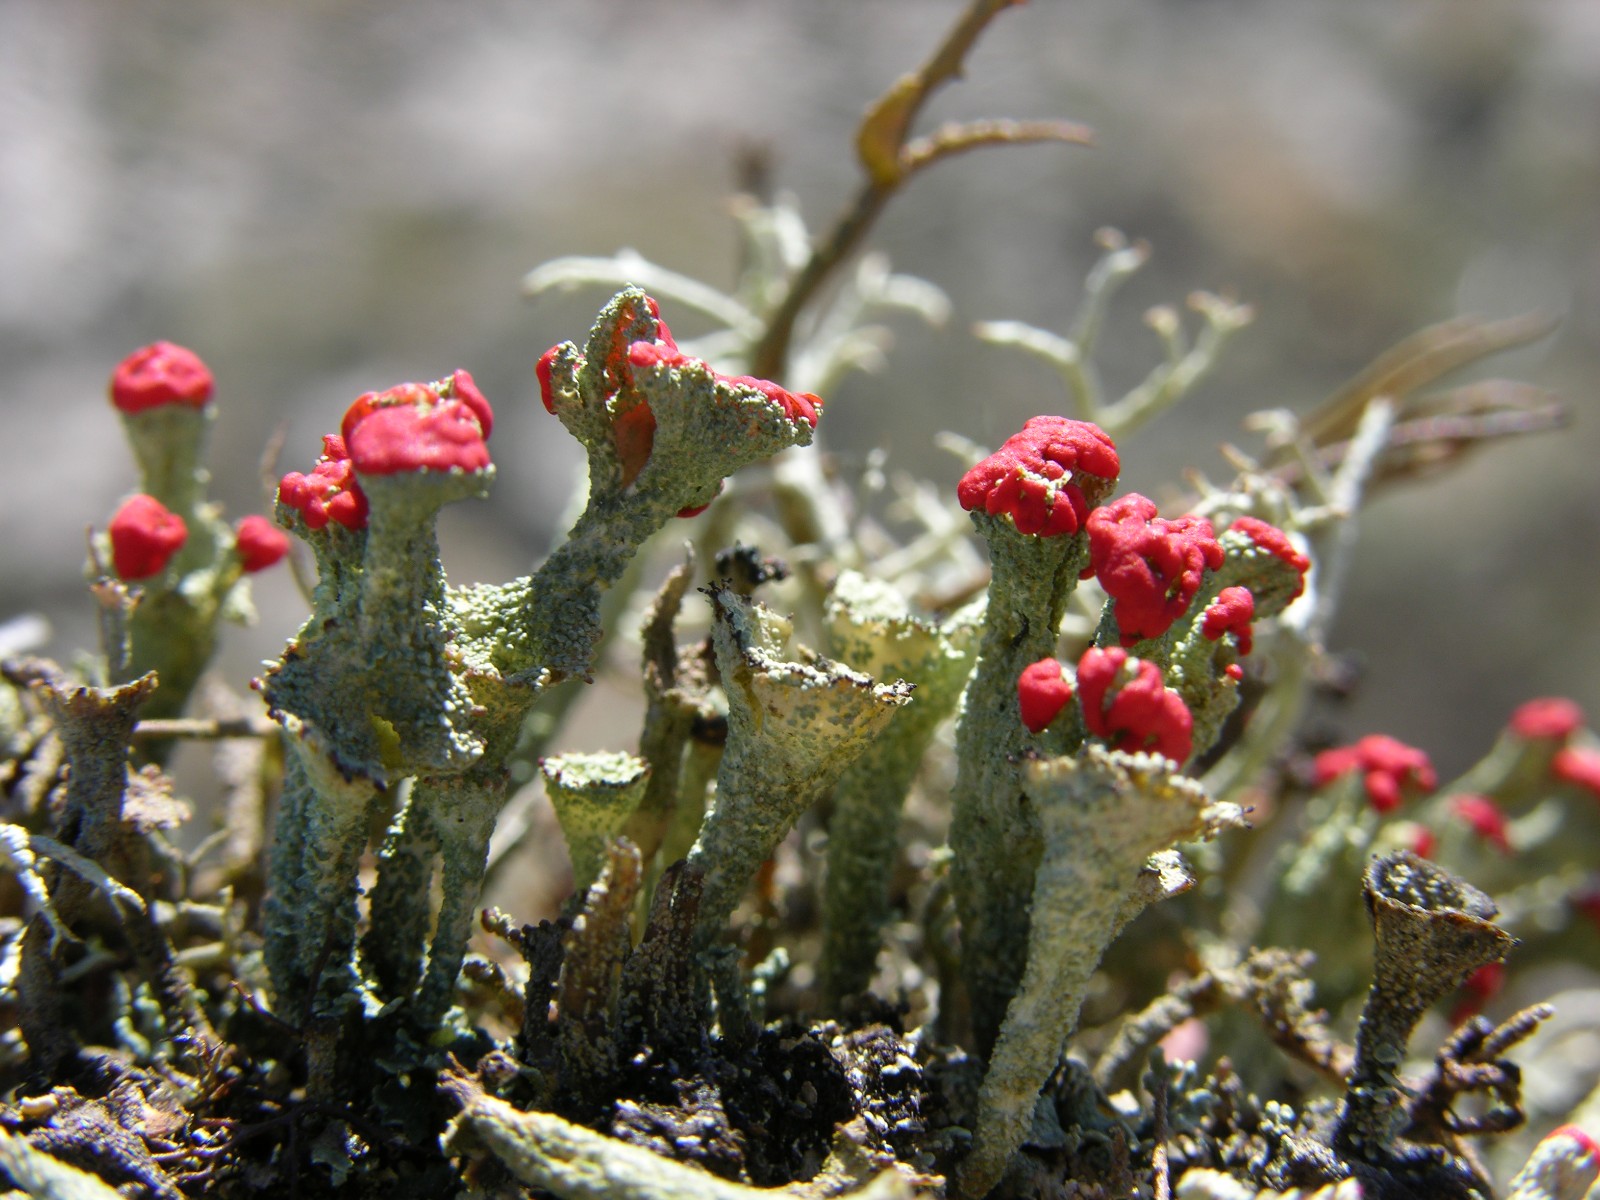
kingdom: Fungi
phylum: Ascomycota
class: Lecanoromycetes
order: Lecanorales
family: Cladoniaceae
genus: Cladonia
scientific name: Cladonia diversa
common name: rød bægerlav
